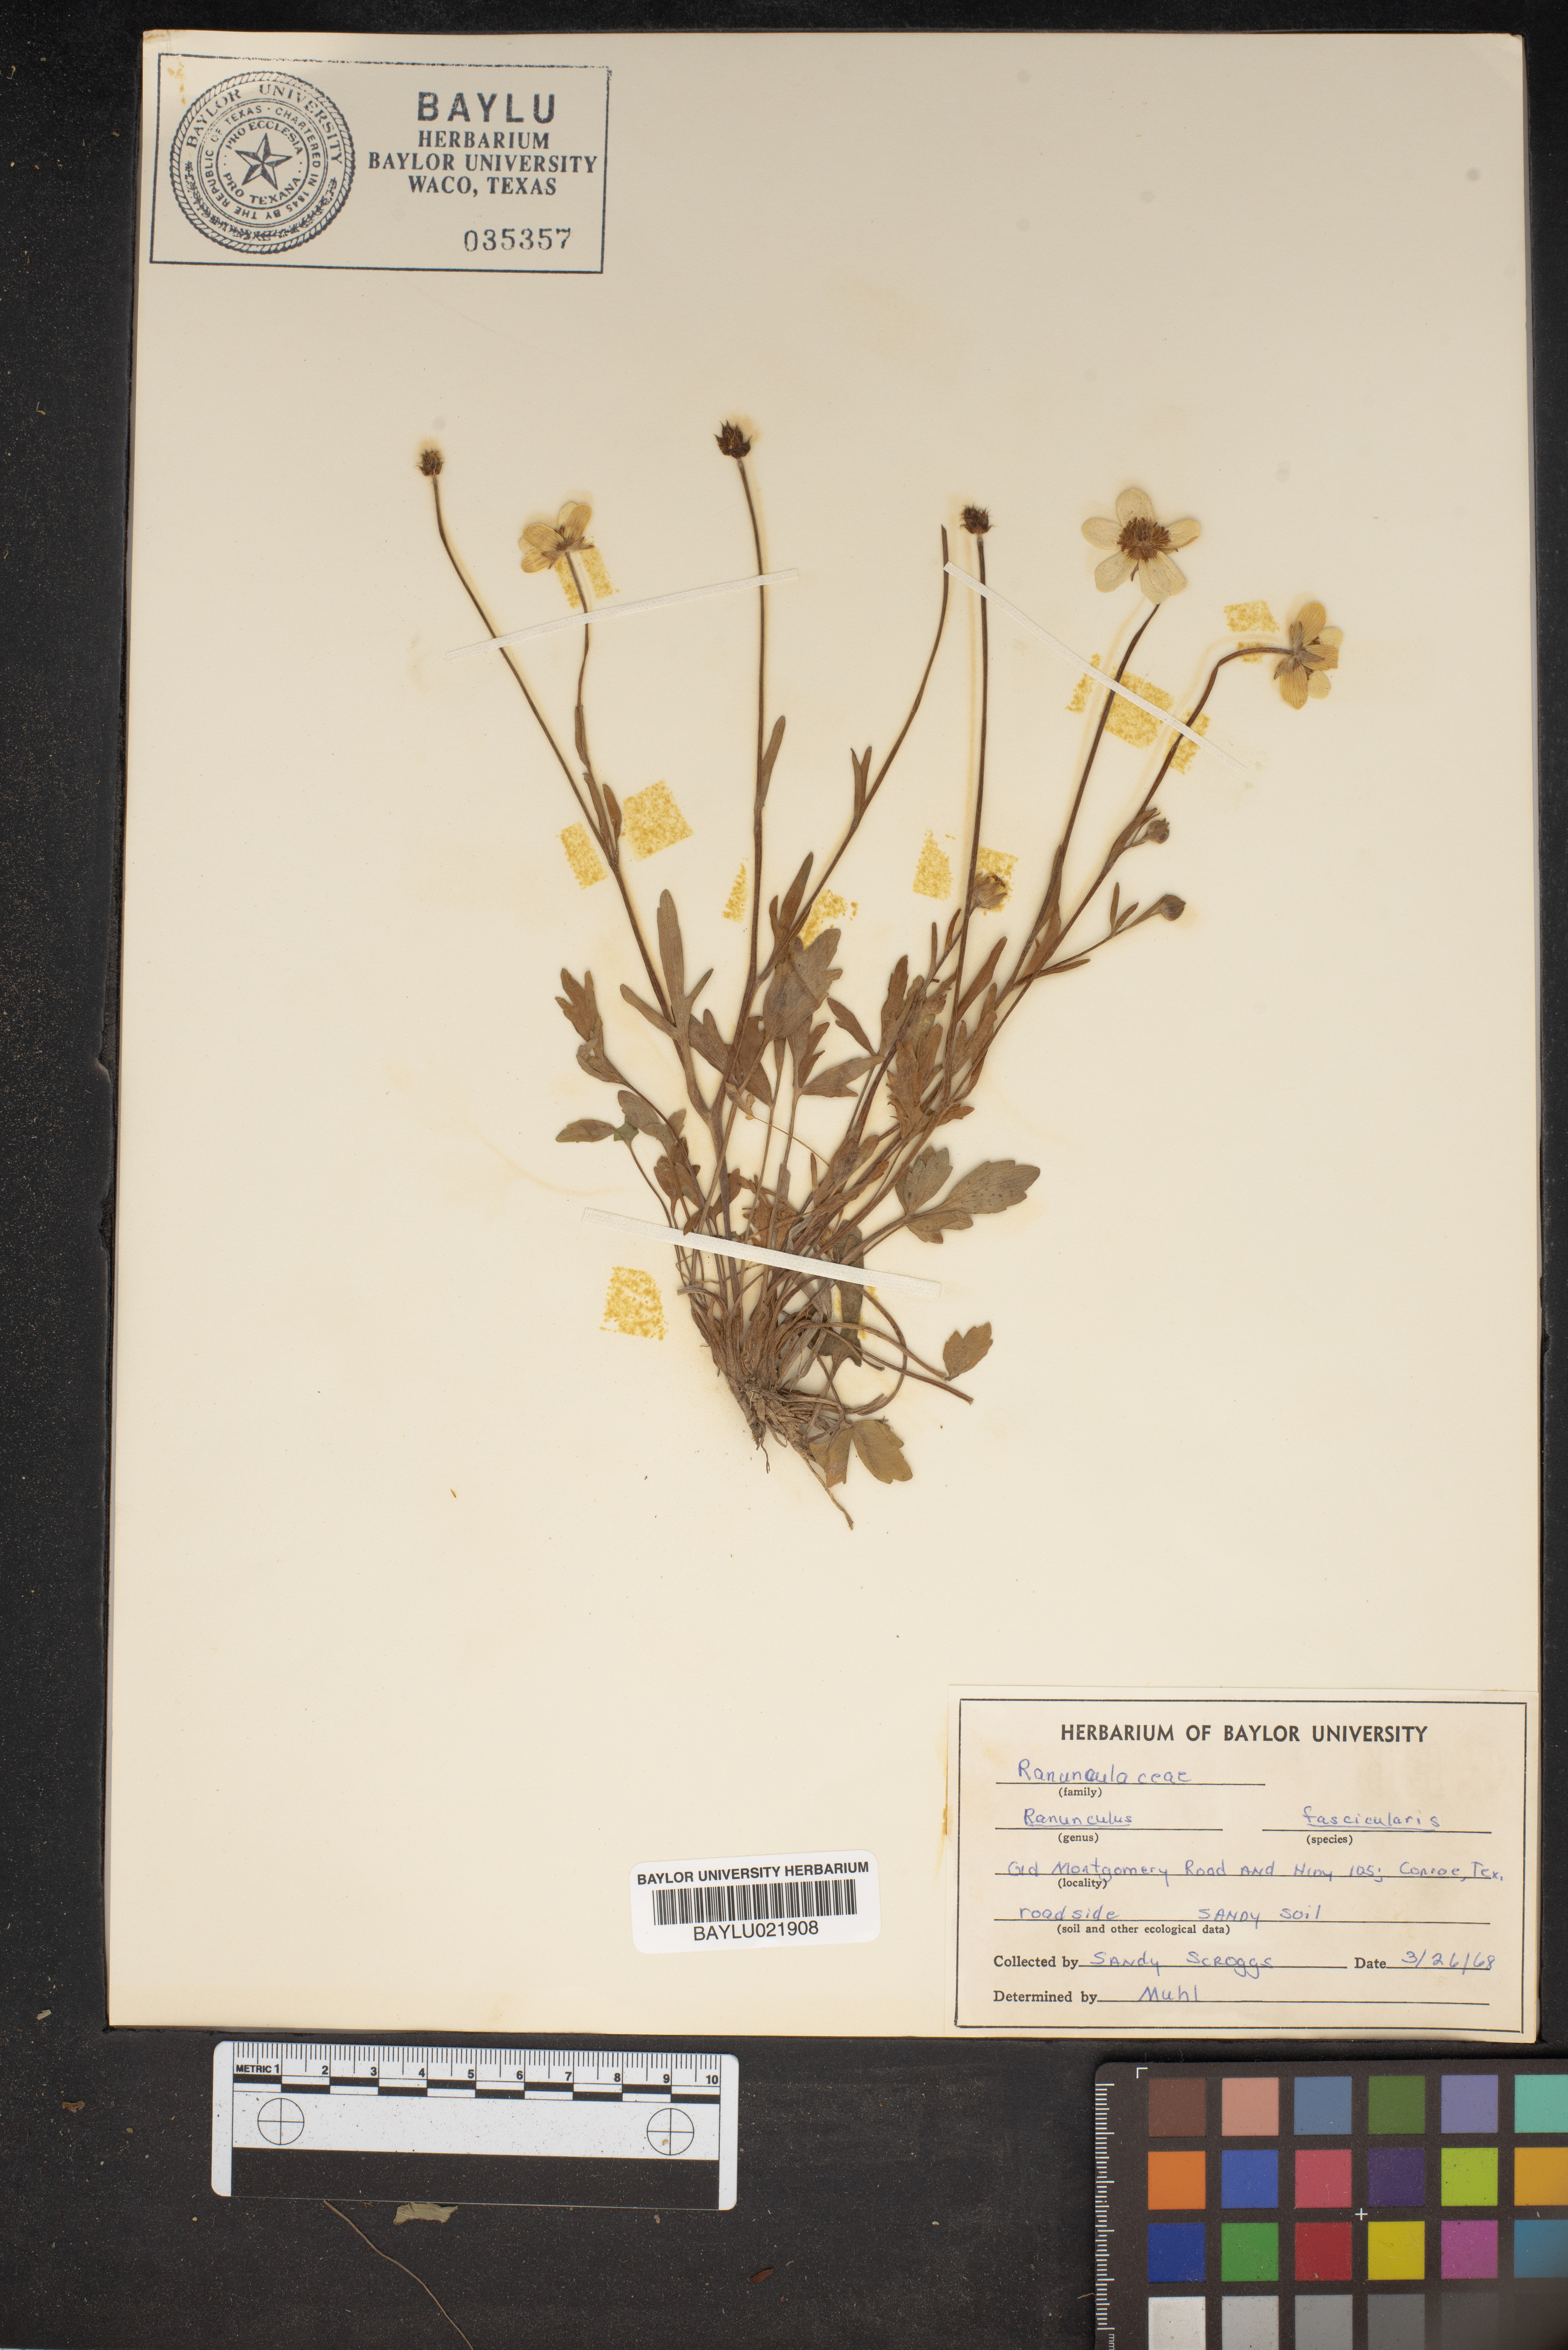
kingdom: Plantae
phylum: Tracheophyta
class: Magnoliopsida
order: Ranunculales
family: Ranunculaceae
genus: Ranunculus
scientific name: Ranunculus fascicularis
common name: Early buttercup
